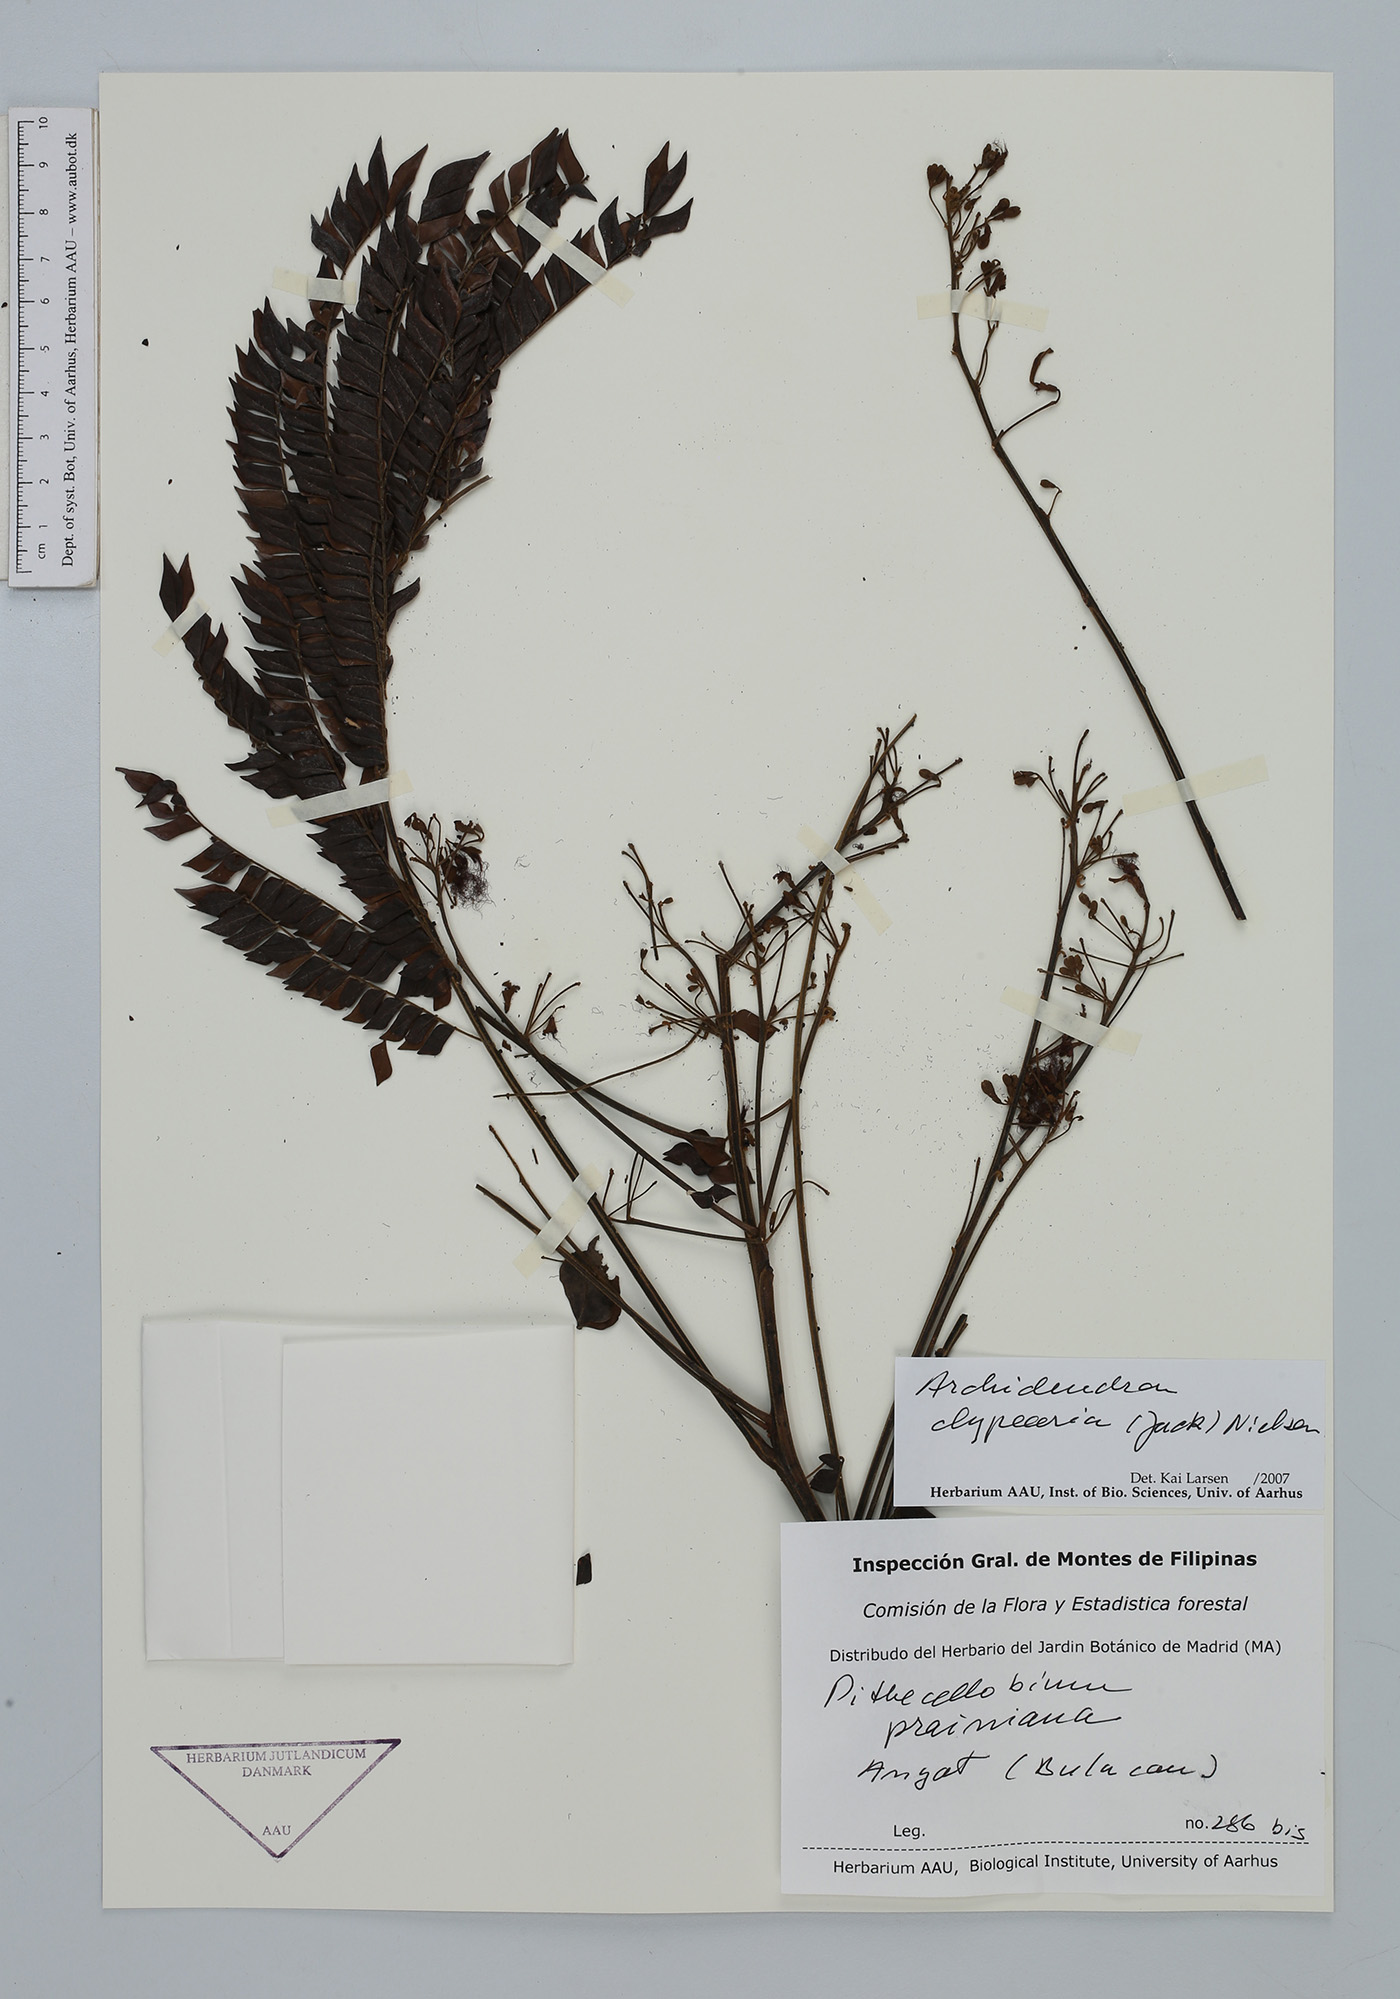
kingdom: Plantae
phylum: Tracheophyta
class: Magnoliopsida
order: Fabales
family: Fabaceae
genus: Archidendron
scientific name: Archidendron clypearia
